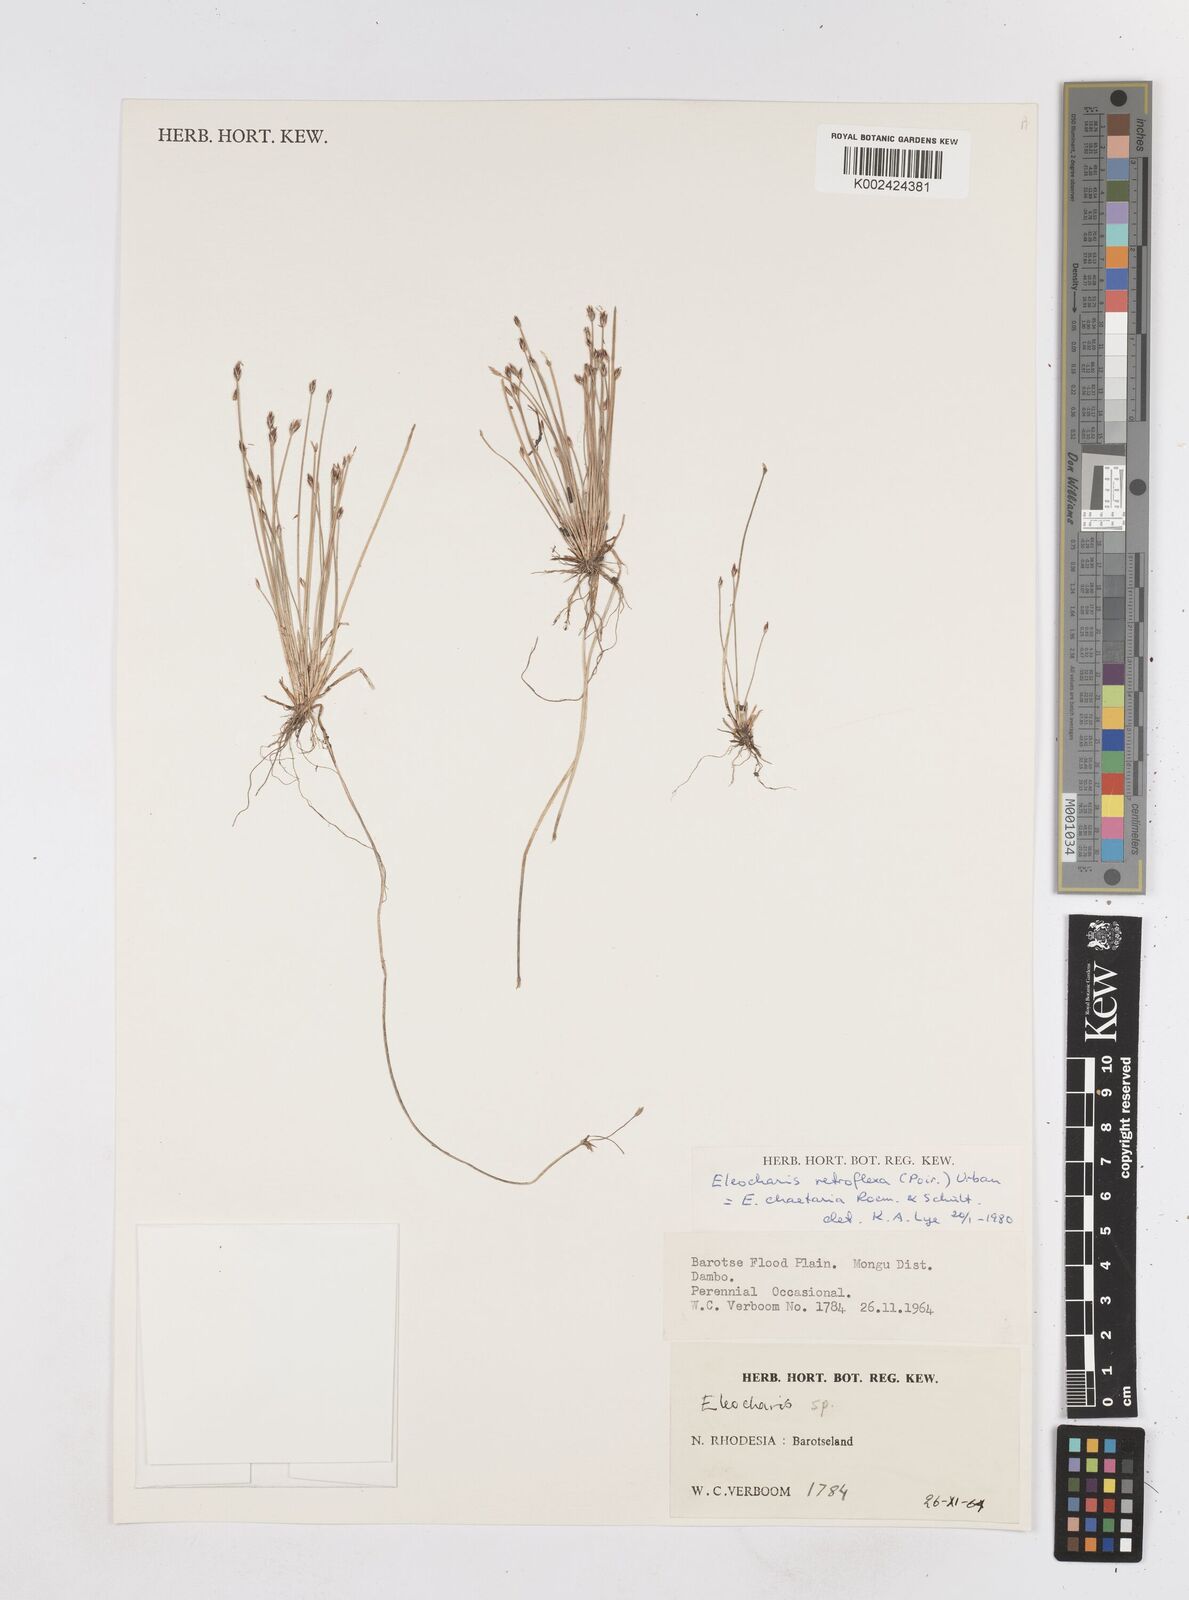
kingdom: Plantae
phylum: Tracheophyta
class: Liliopsida
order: Poales
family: Cyperaceae
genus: Eleocharis
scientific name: Eleocharis retroflexa
